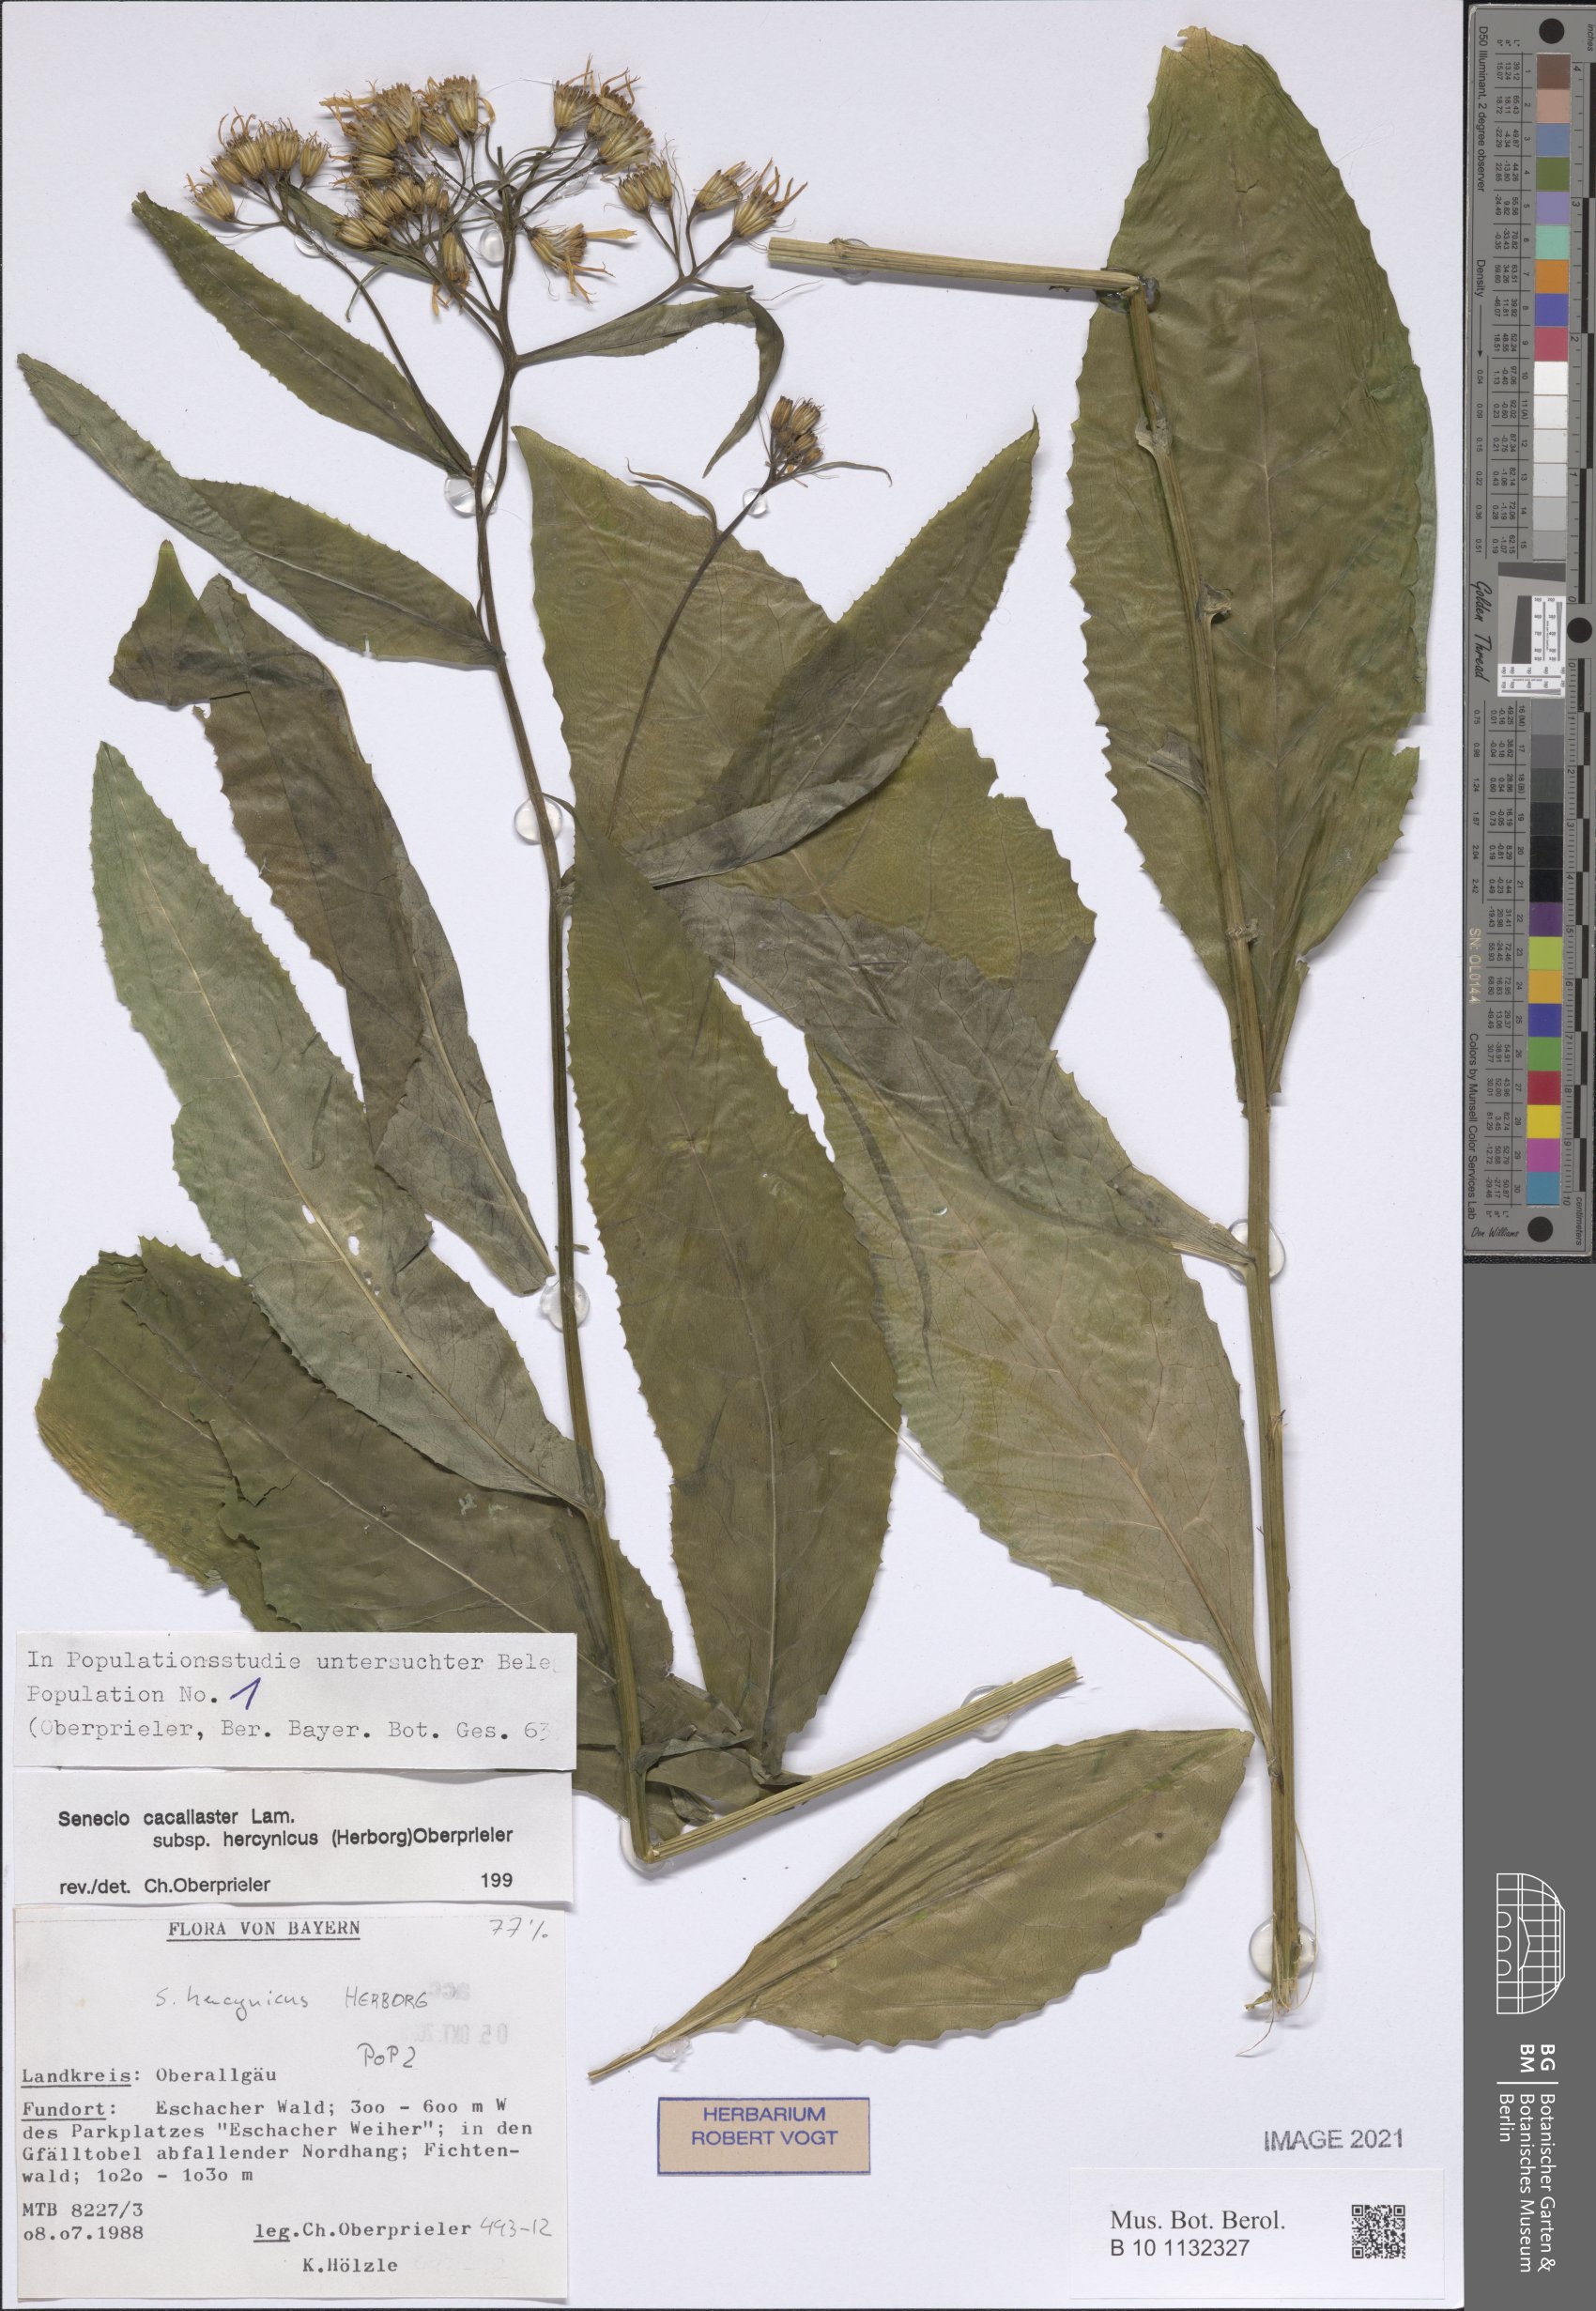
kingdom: Plantae
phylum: Tracheophyta
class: Magnoliopsida
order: Asterales
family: Asteraceae
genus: Senecio
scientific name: Senecio hercynicus
